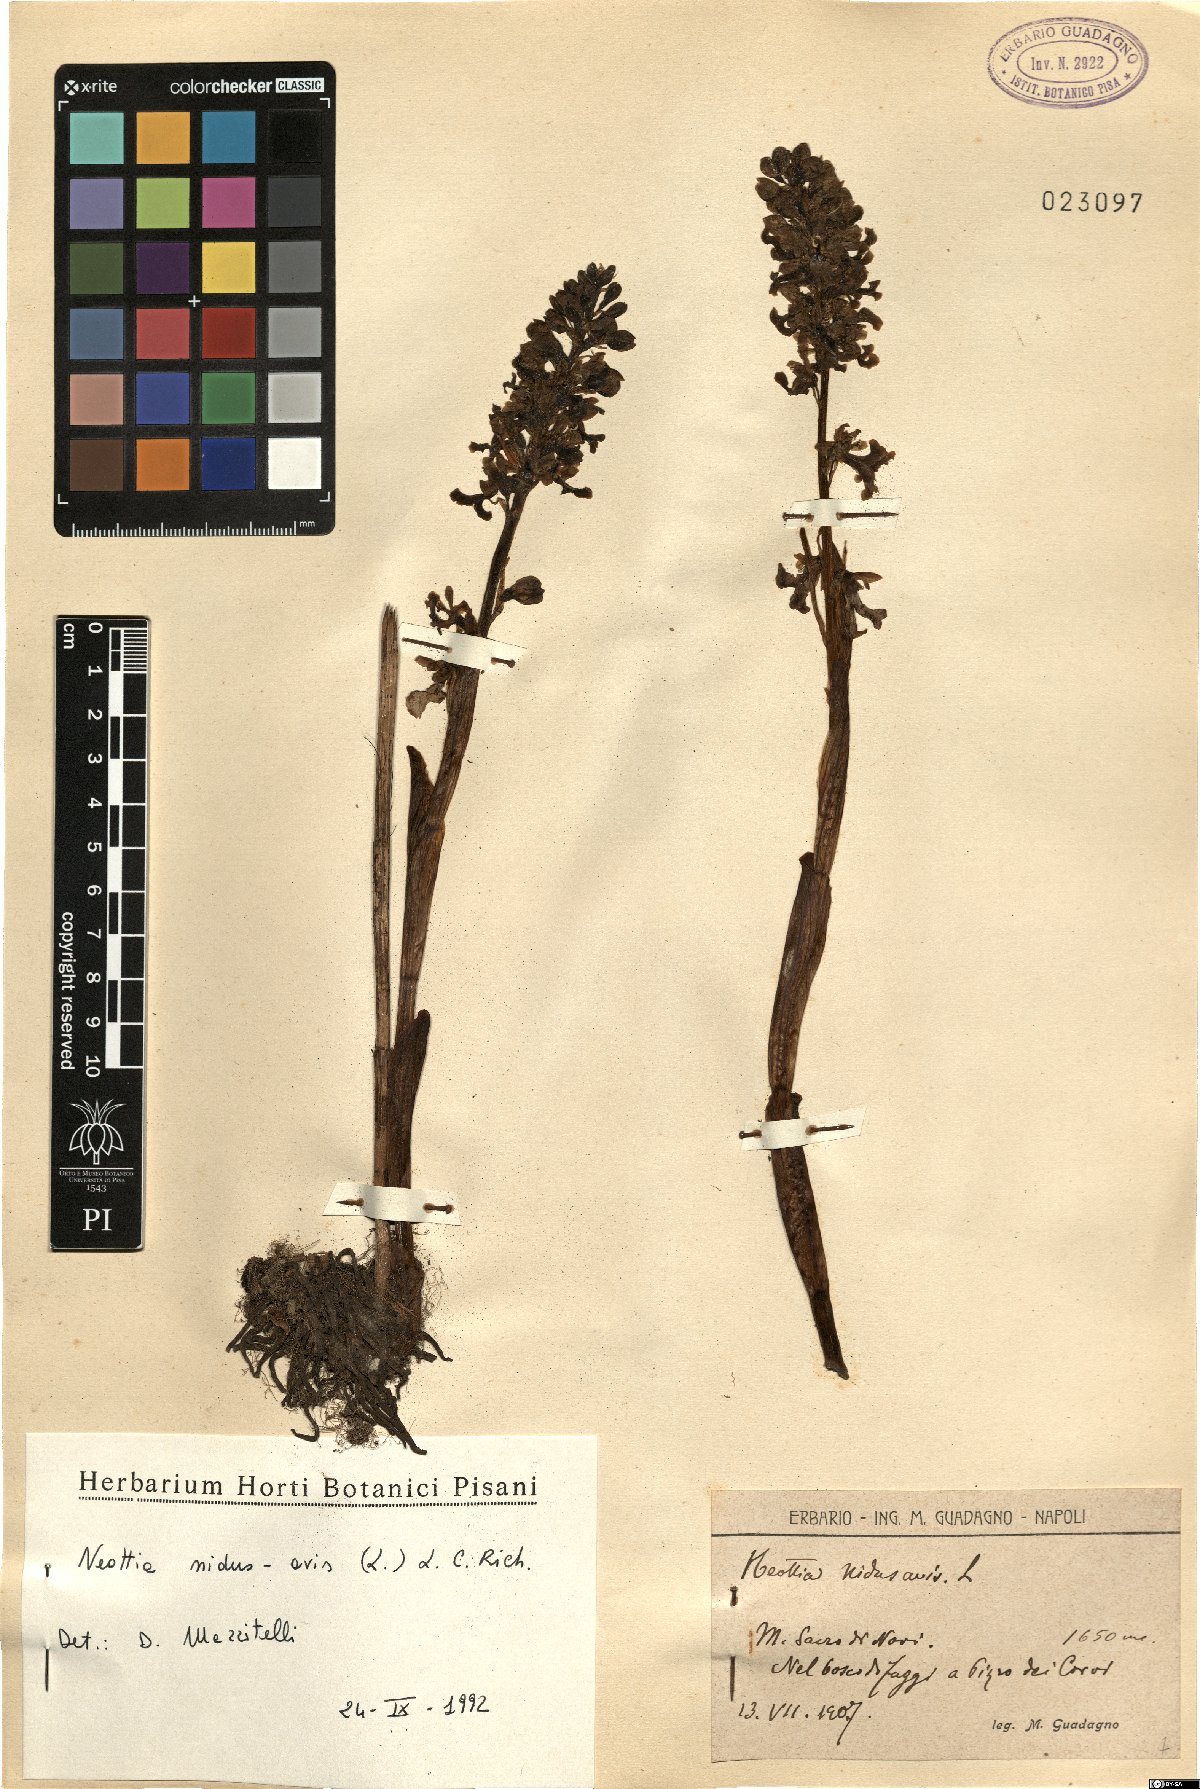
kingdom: Plantae
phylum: Tracheophyta
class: Liliopsida
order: Asparagales
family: Orchidaceae
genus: Neottia
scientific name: Neottia nidus-avis
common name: Bird's-nest orchid
